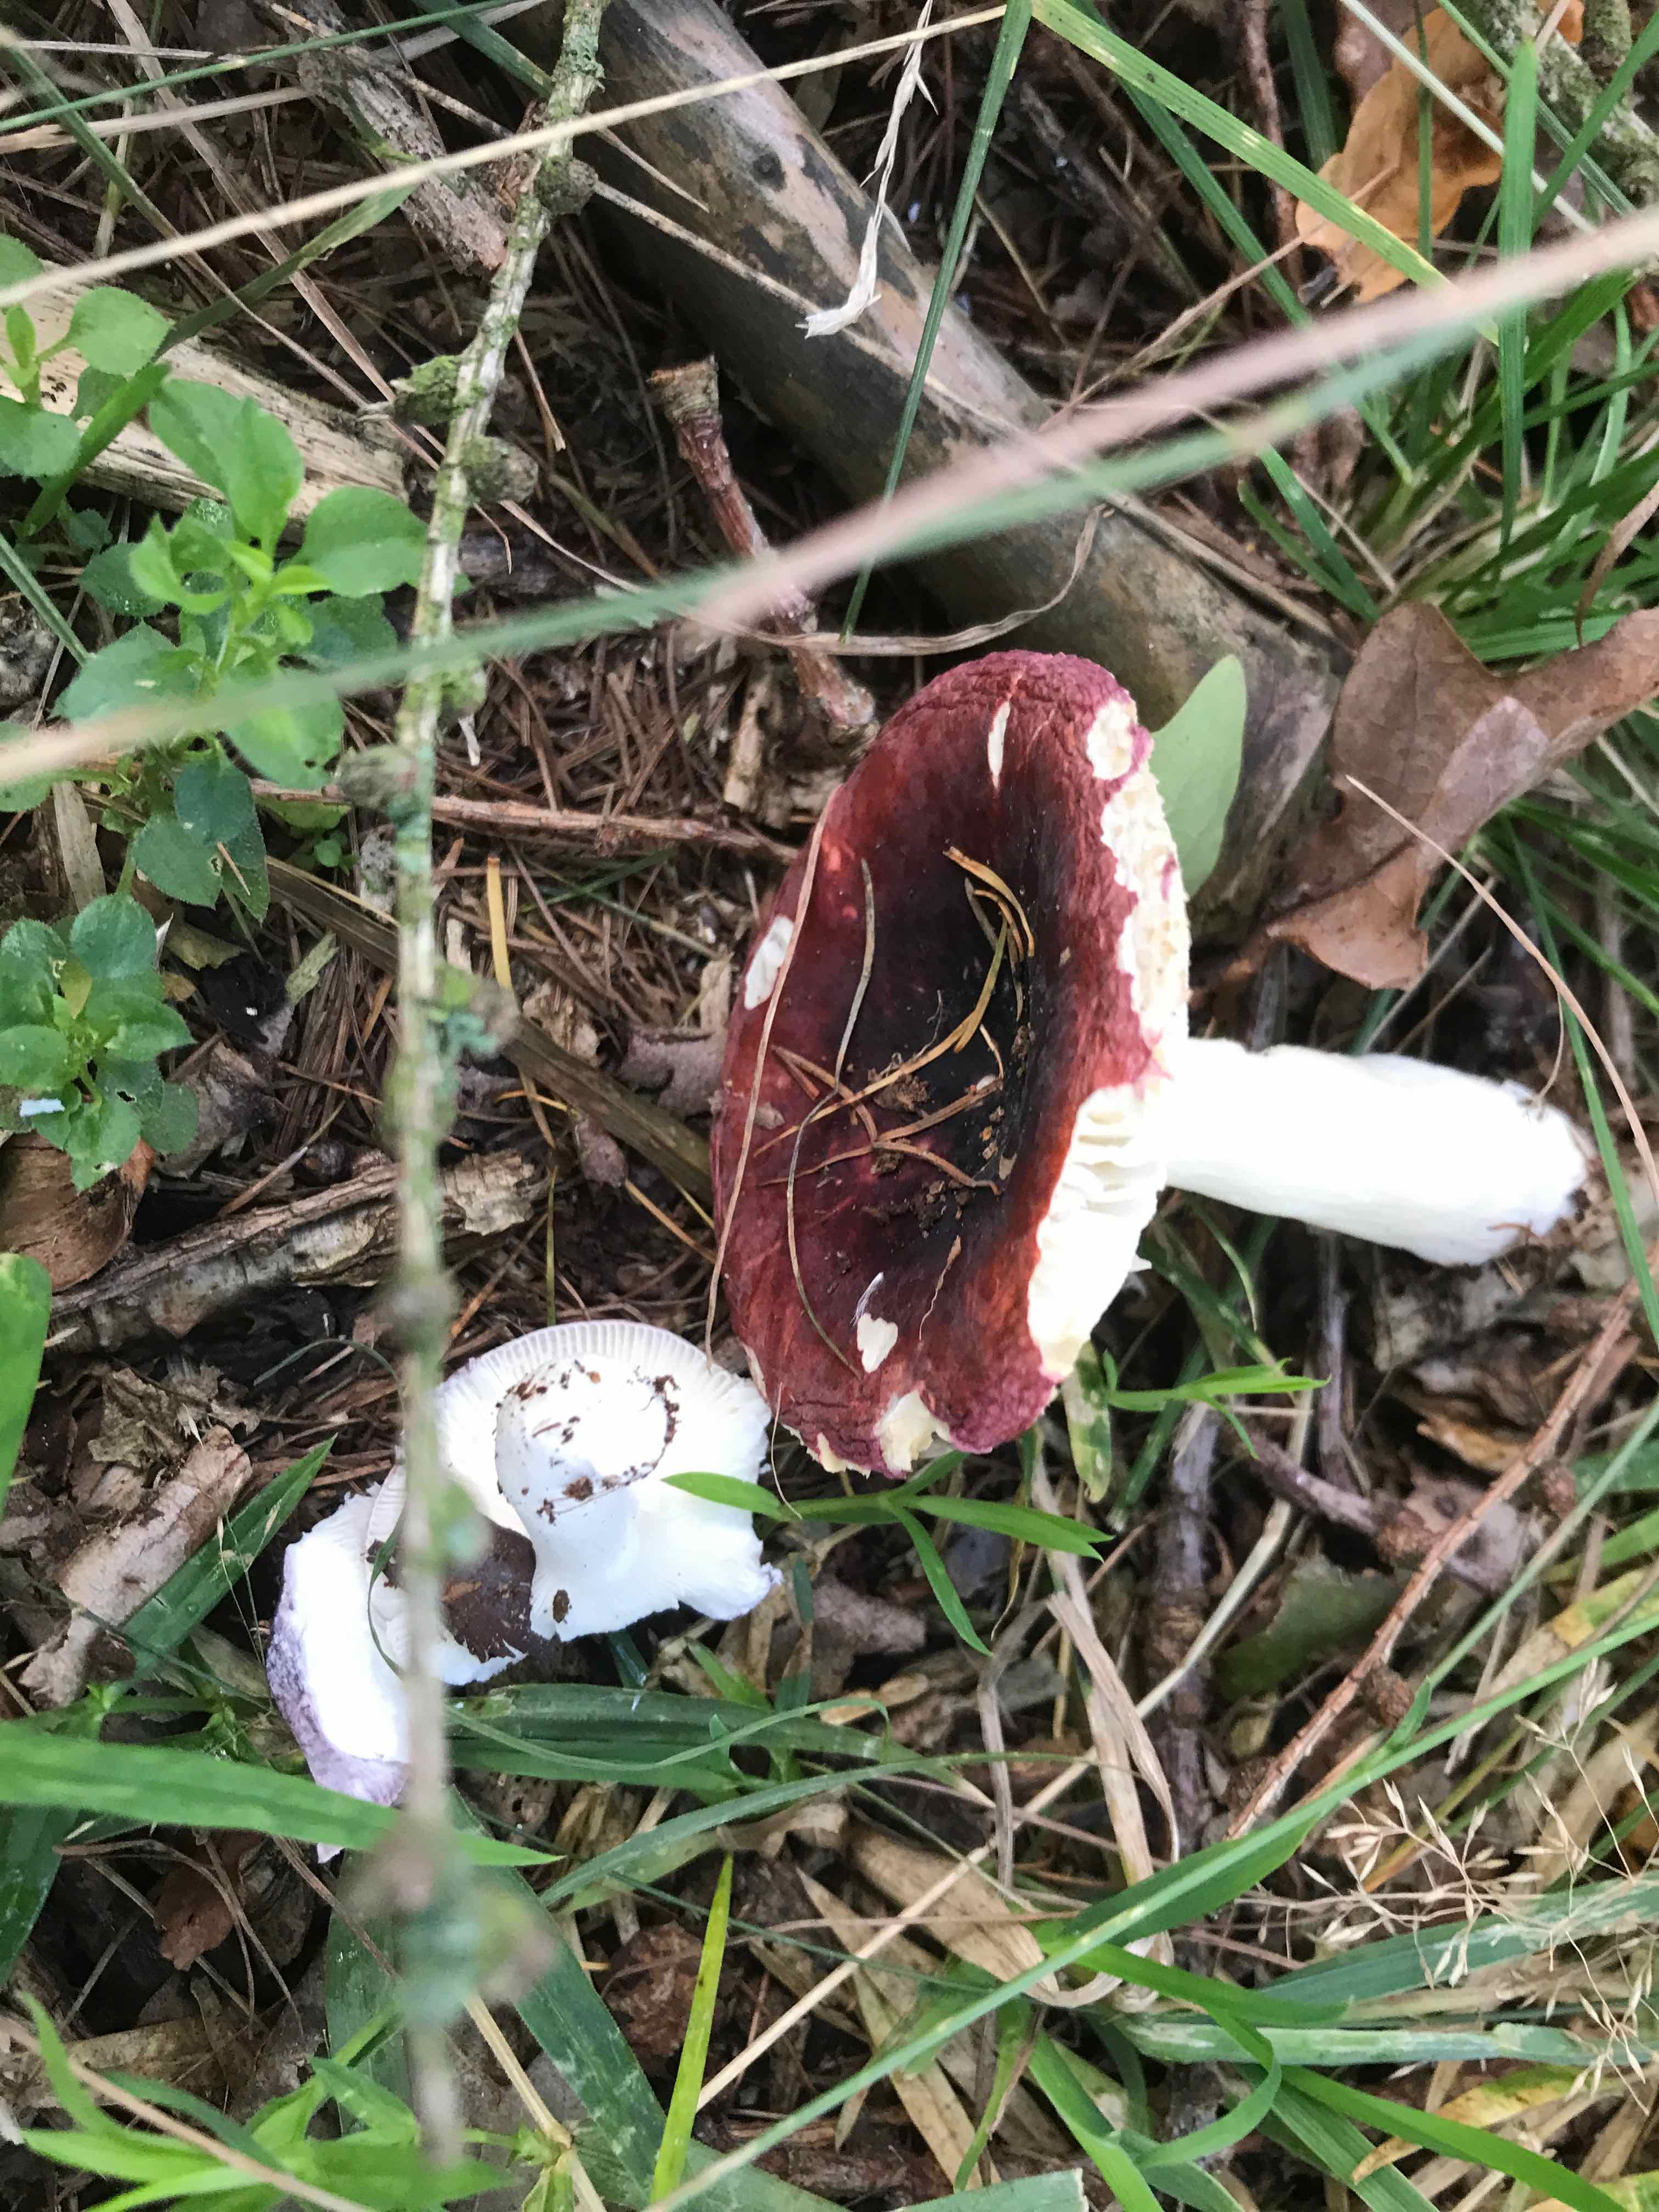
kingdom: Fungi
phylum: Basidiomycota
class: Agaricomycetes
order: Russulales
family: Russulaceae
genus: Russula
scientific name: Russula atropurpurea
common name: purpurbroget skørhat
